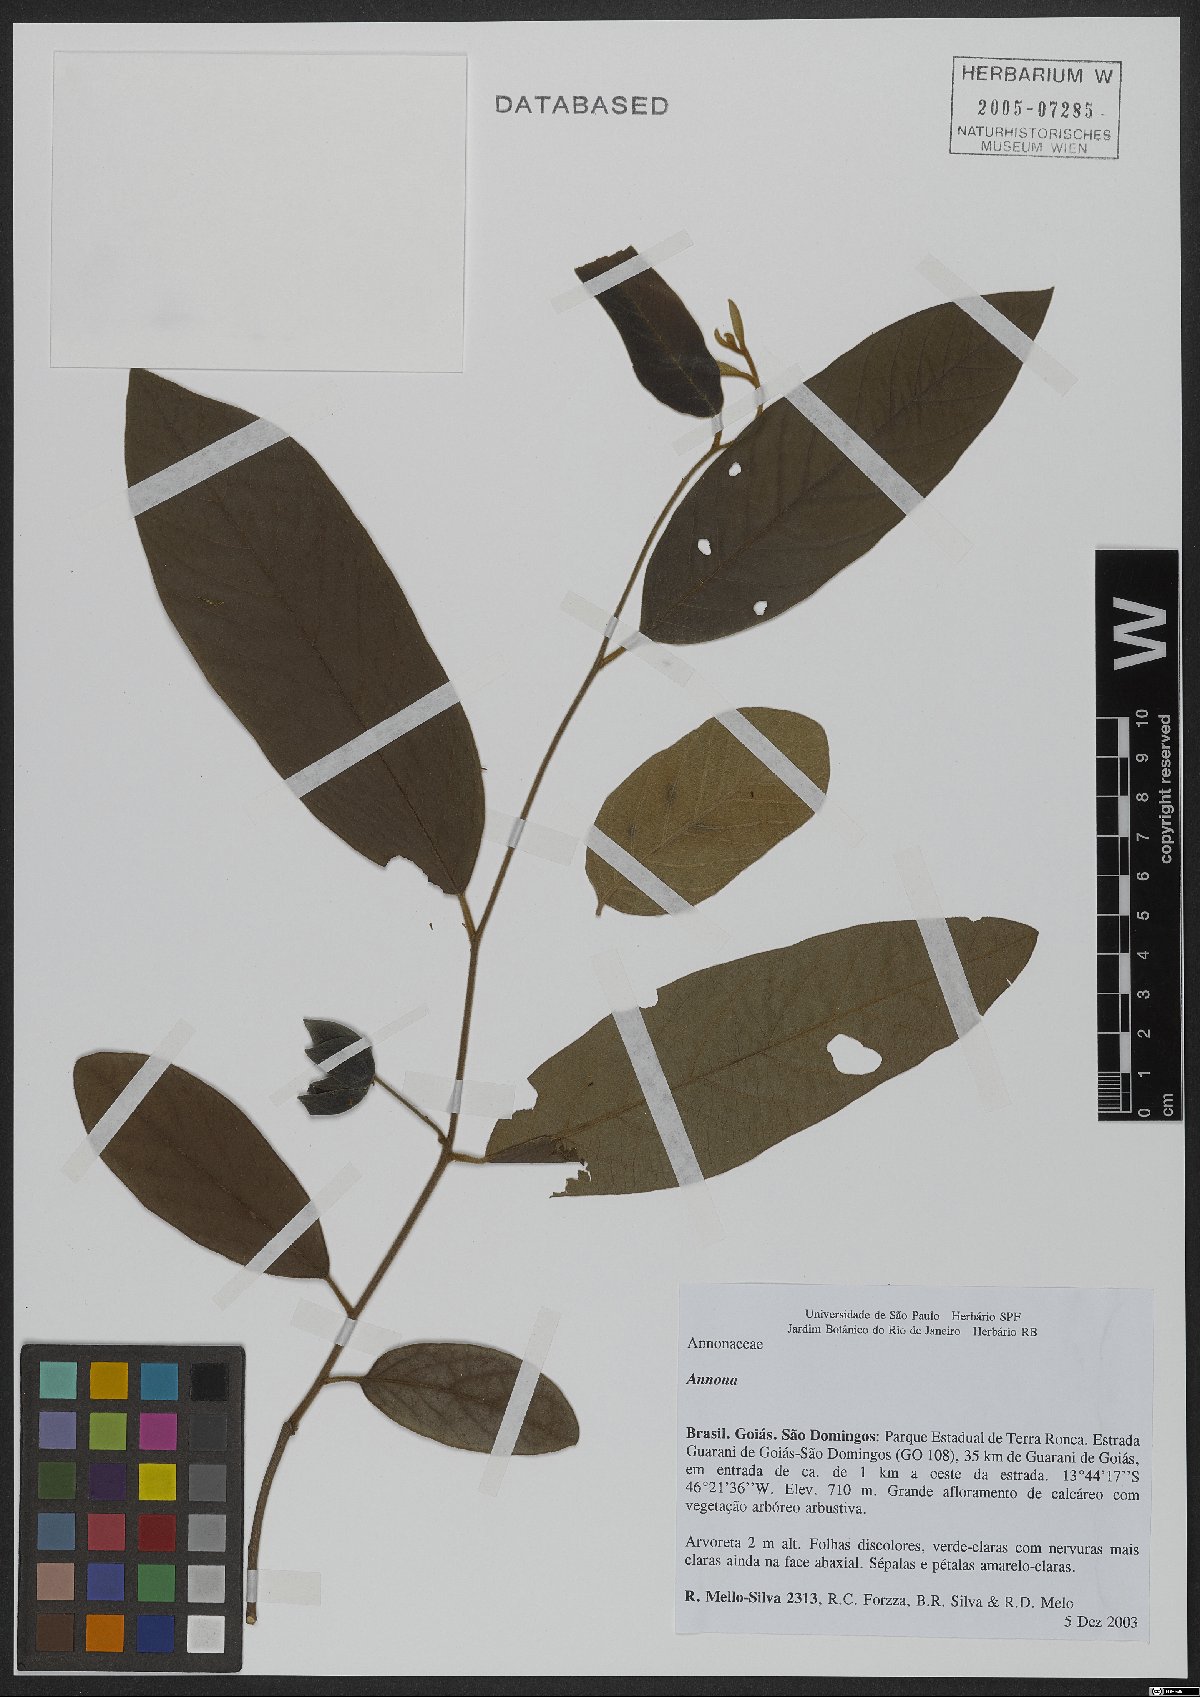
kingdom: Plantae
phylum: Tracheophyta
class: Magnoliopsida
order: Magnoliales
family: Annonaceae
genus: Annona
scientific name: Annona
